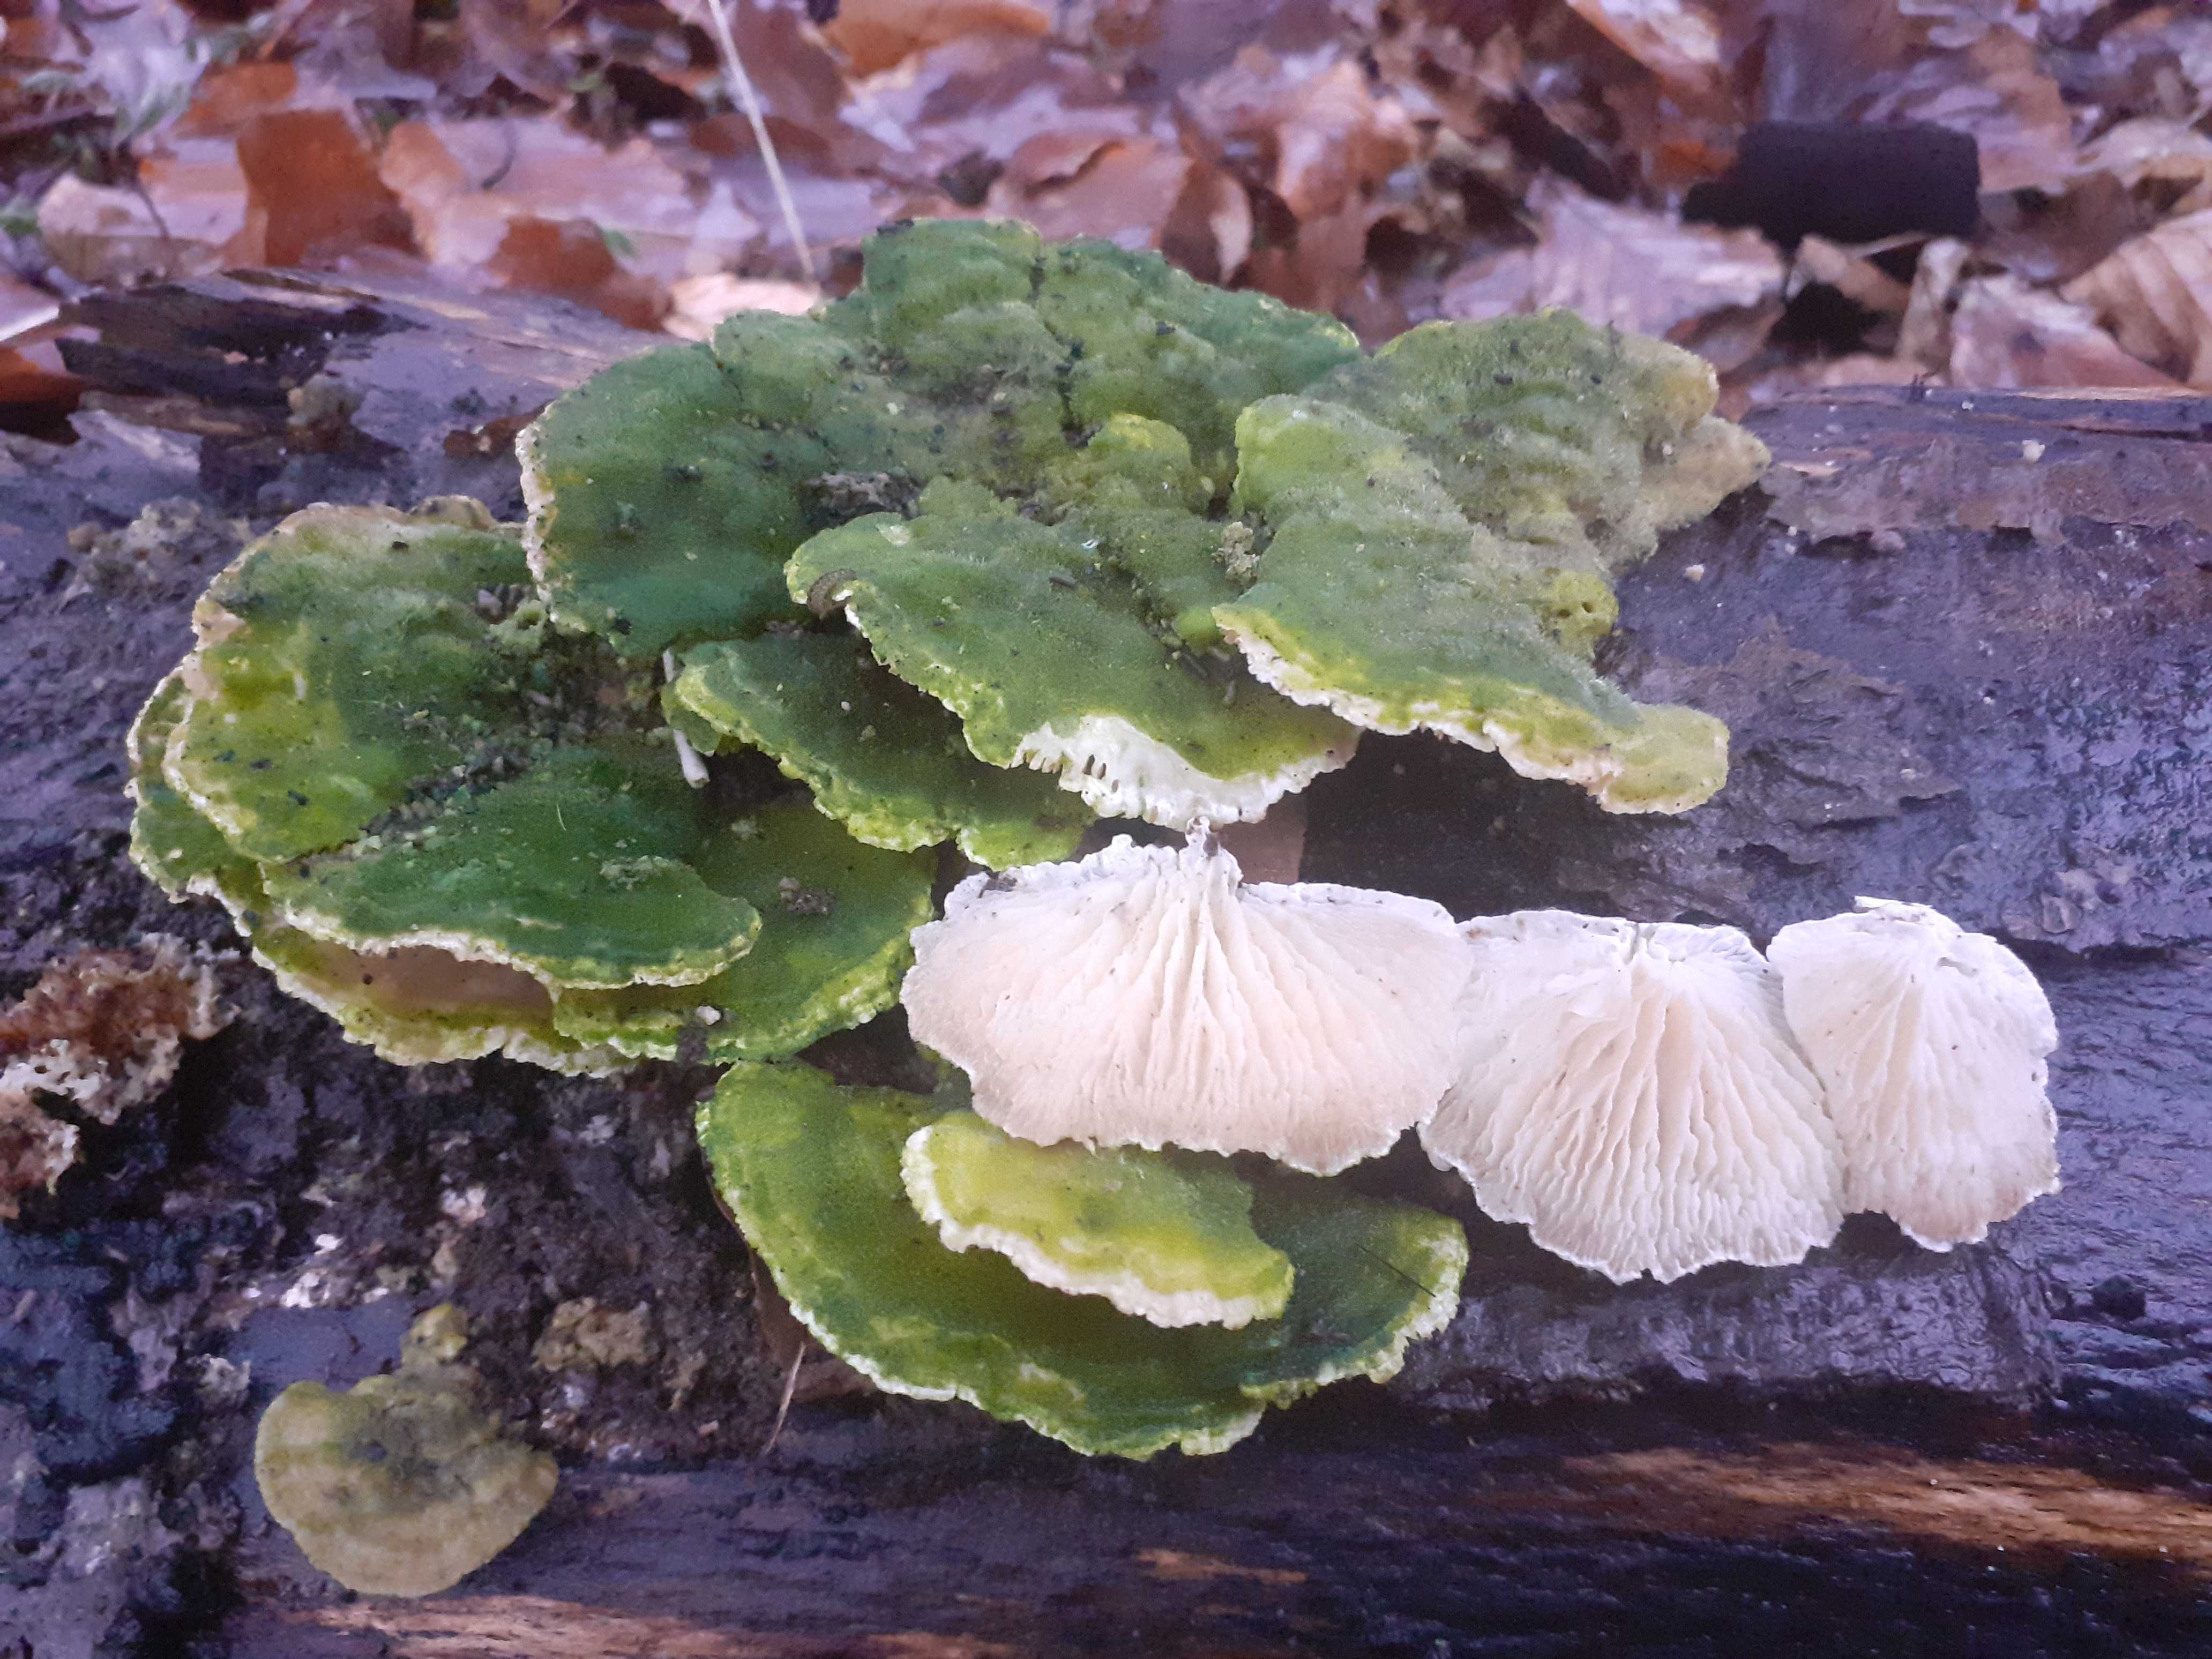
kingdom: Fungi
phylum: Basidiomycota
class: Agaricomycetes
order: Polyporales
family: Polyporaceae
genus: Lenzites
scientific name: Lenzites betulinus
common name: birke-læderporesvamp
